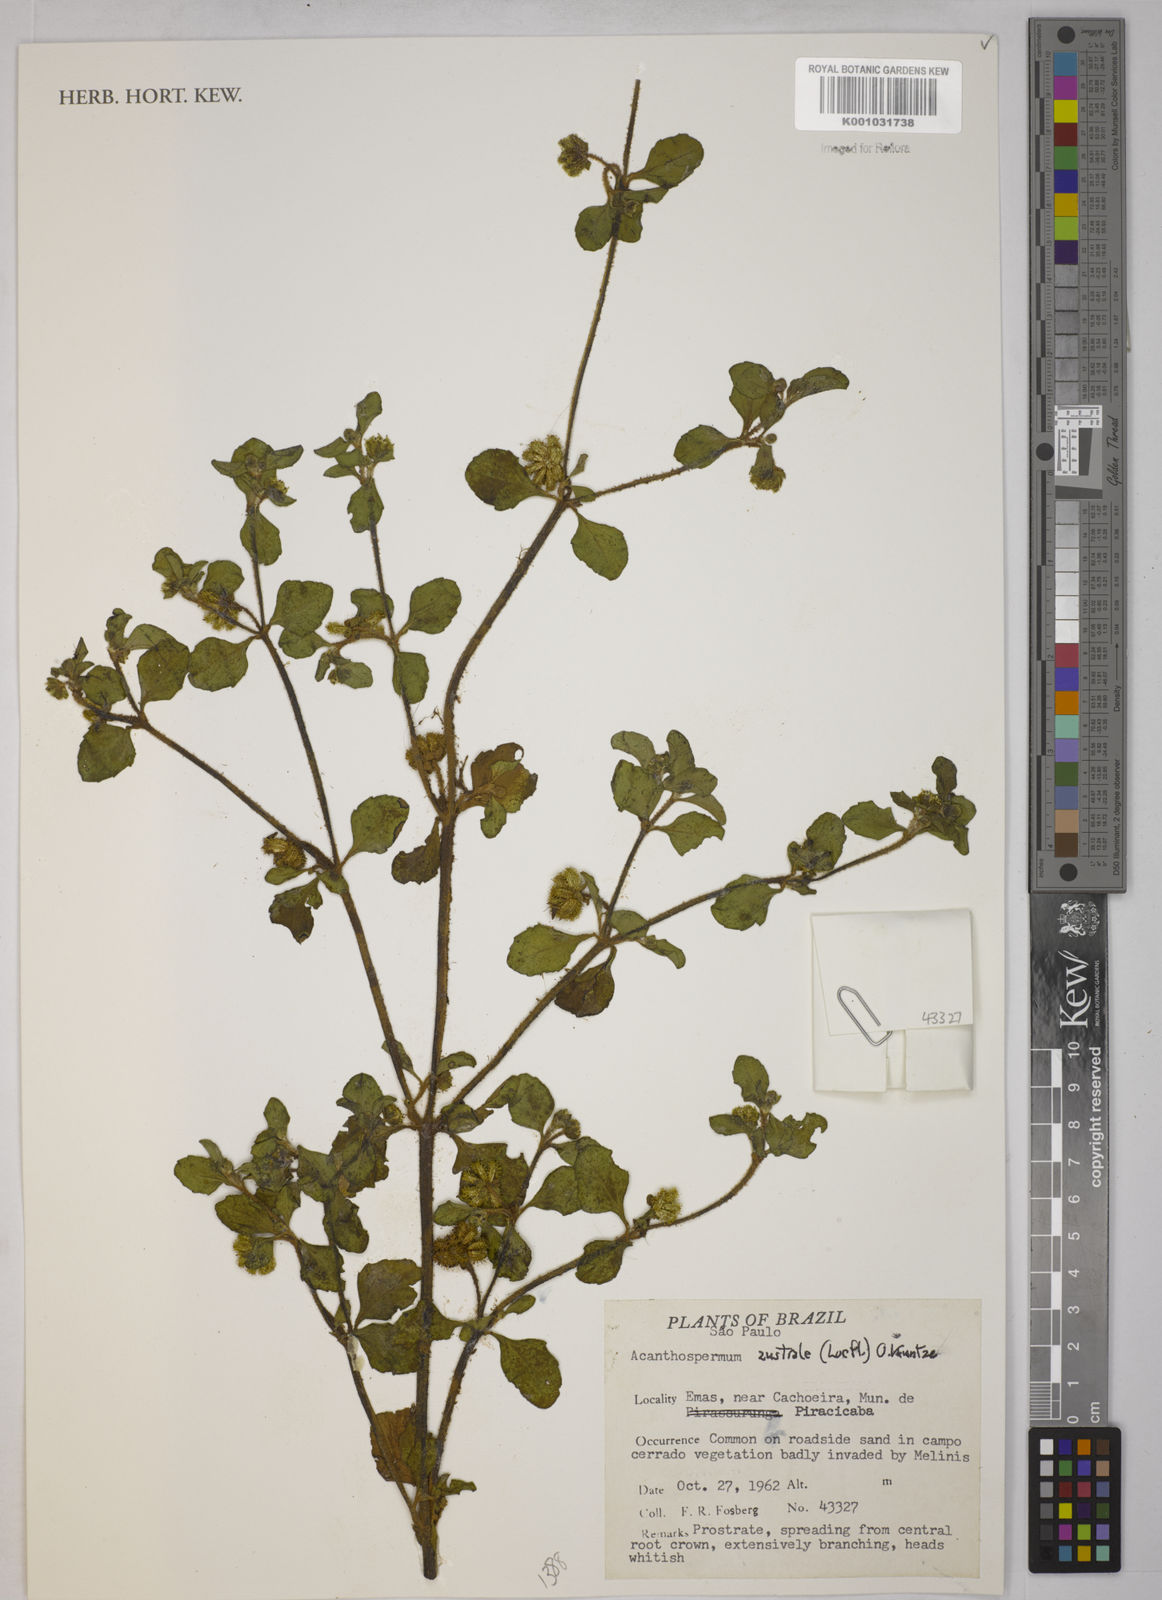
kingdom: Plantae
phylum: Tracheophyta
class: Magnoliopsida
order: Asterales
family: Asteraceae
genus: Acanthospermum
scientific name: Acanthospermum australe
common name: Paraguayan starbur
